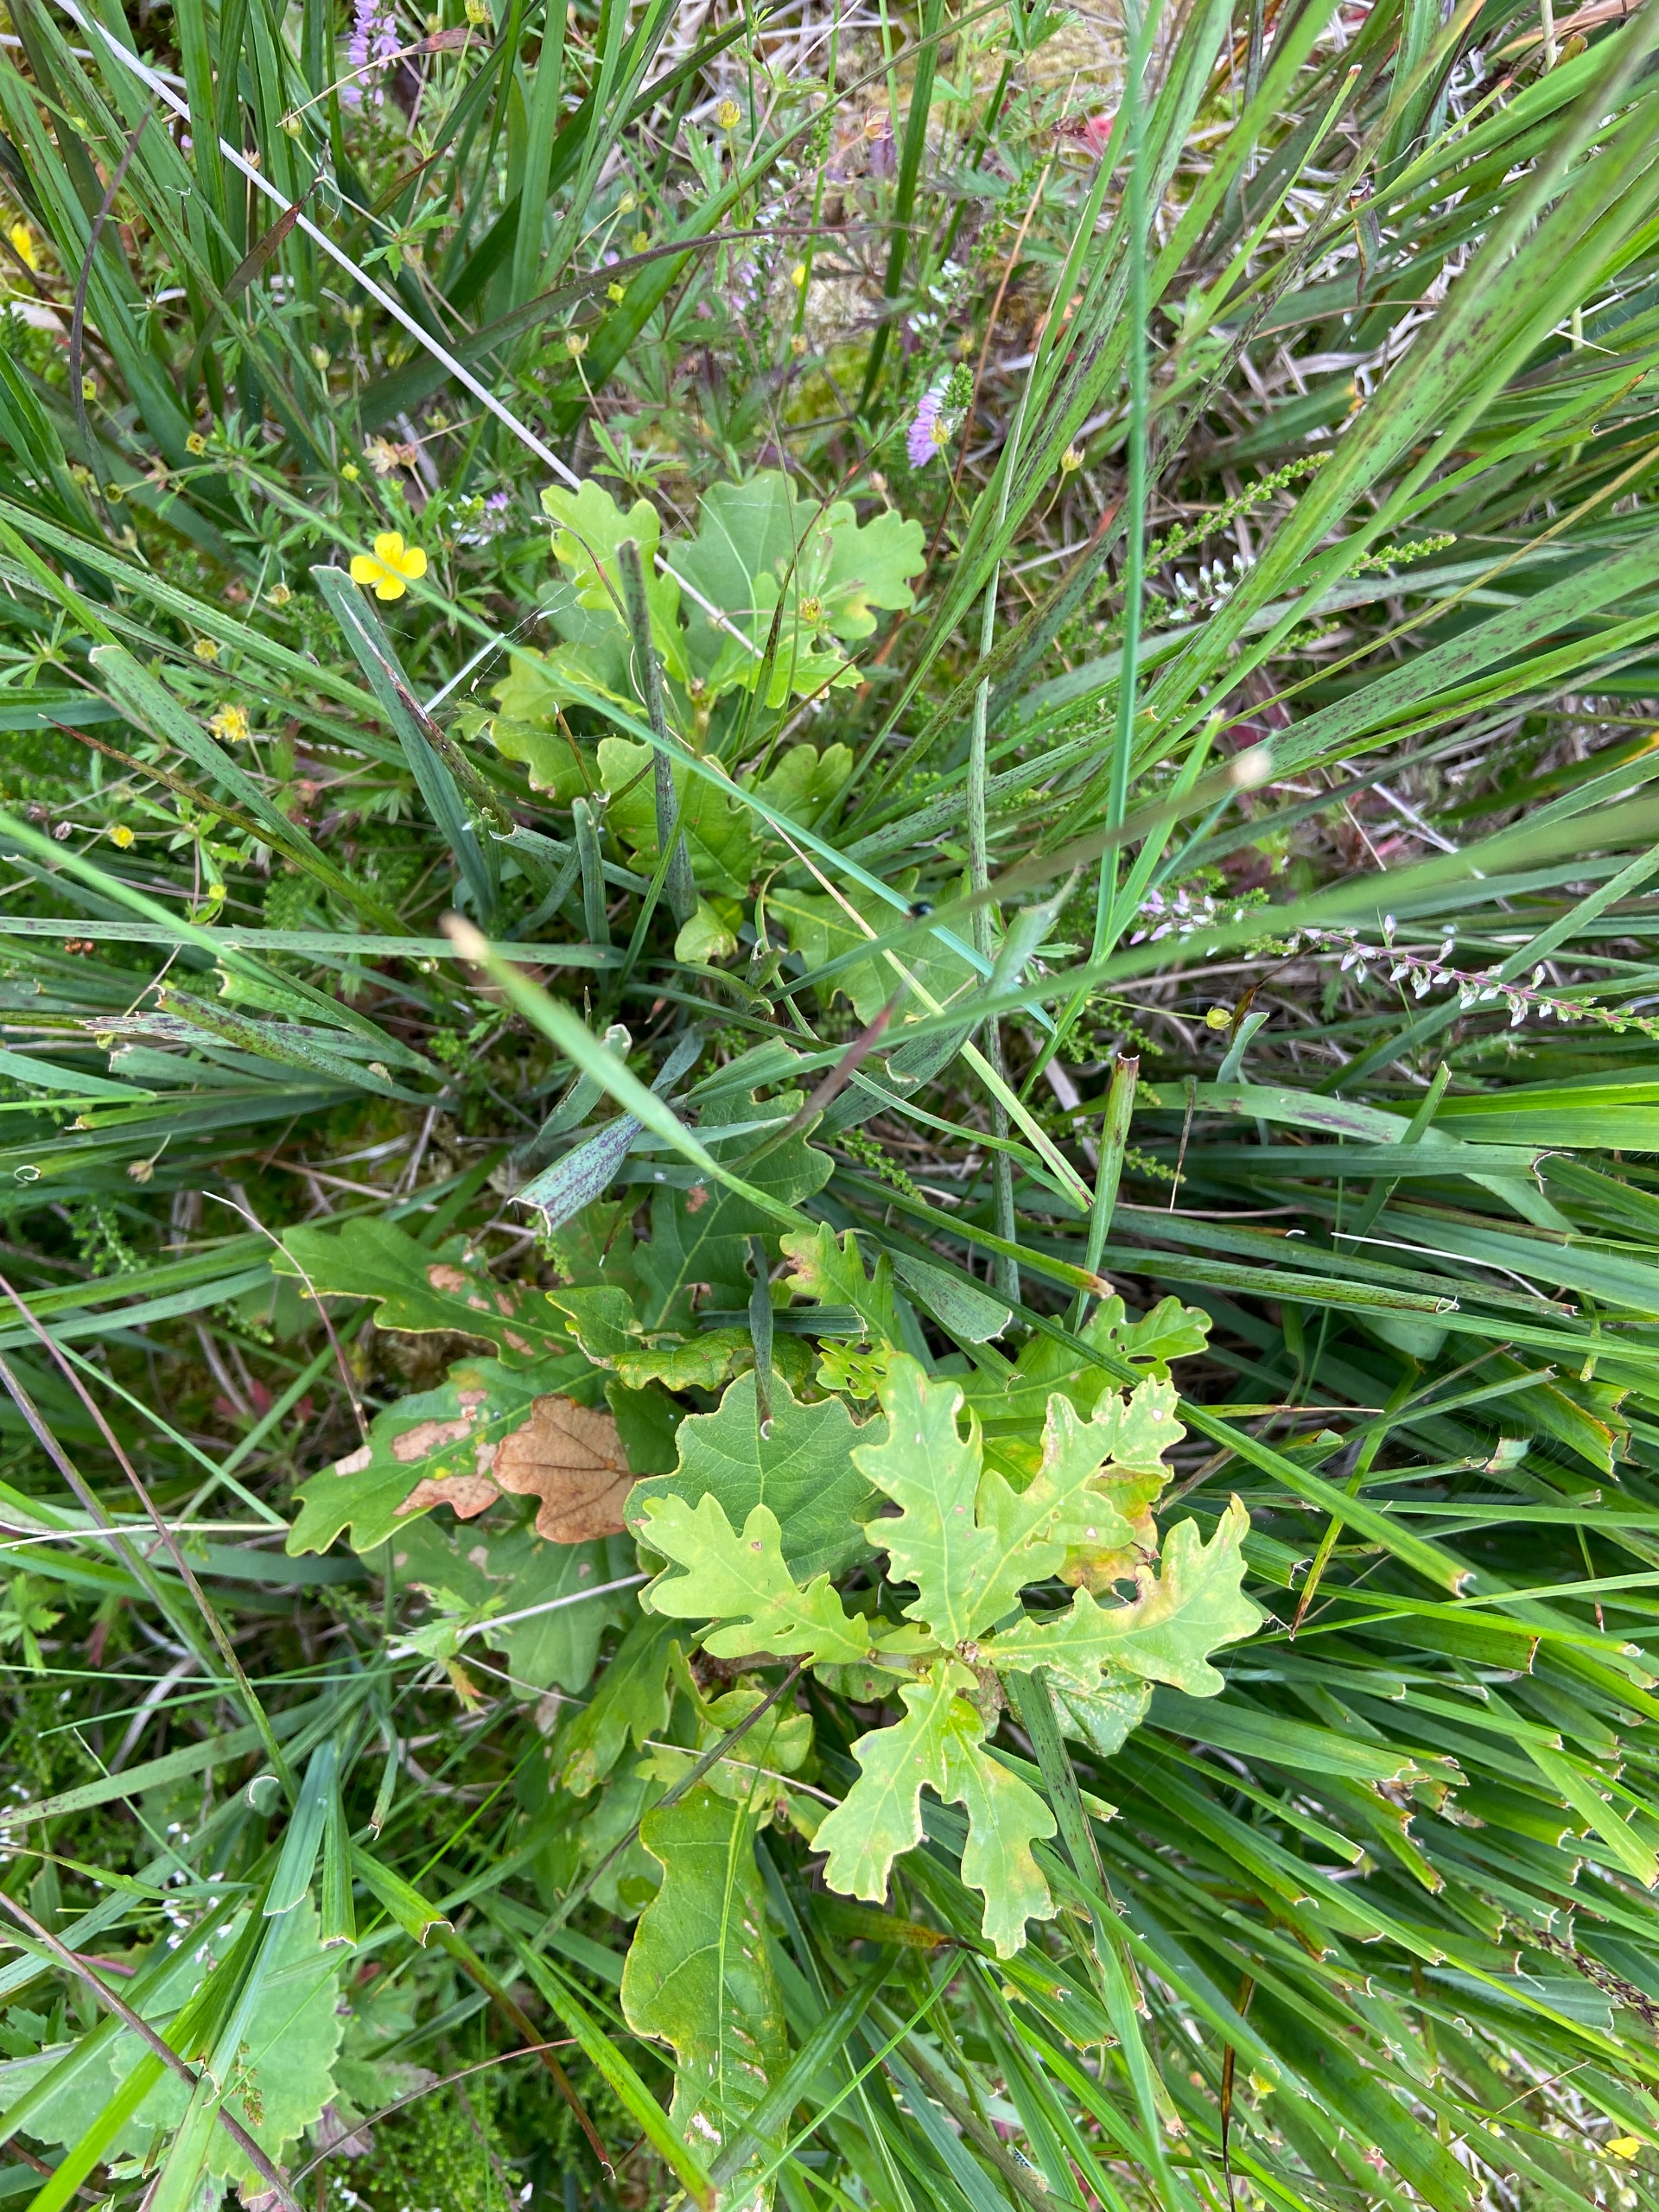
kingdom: Plantae
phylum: Tracheophyta
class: Magnoliopsida
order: Fagales
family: Fagaceae
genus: Quercus
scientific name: Quercus robur
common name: Stilk-eg/almindelig eg
